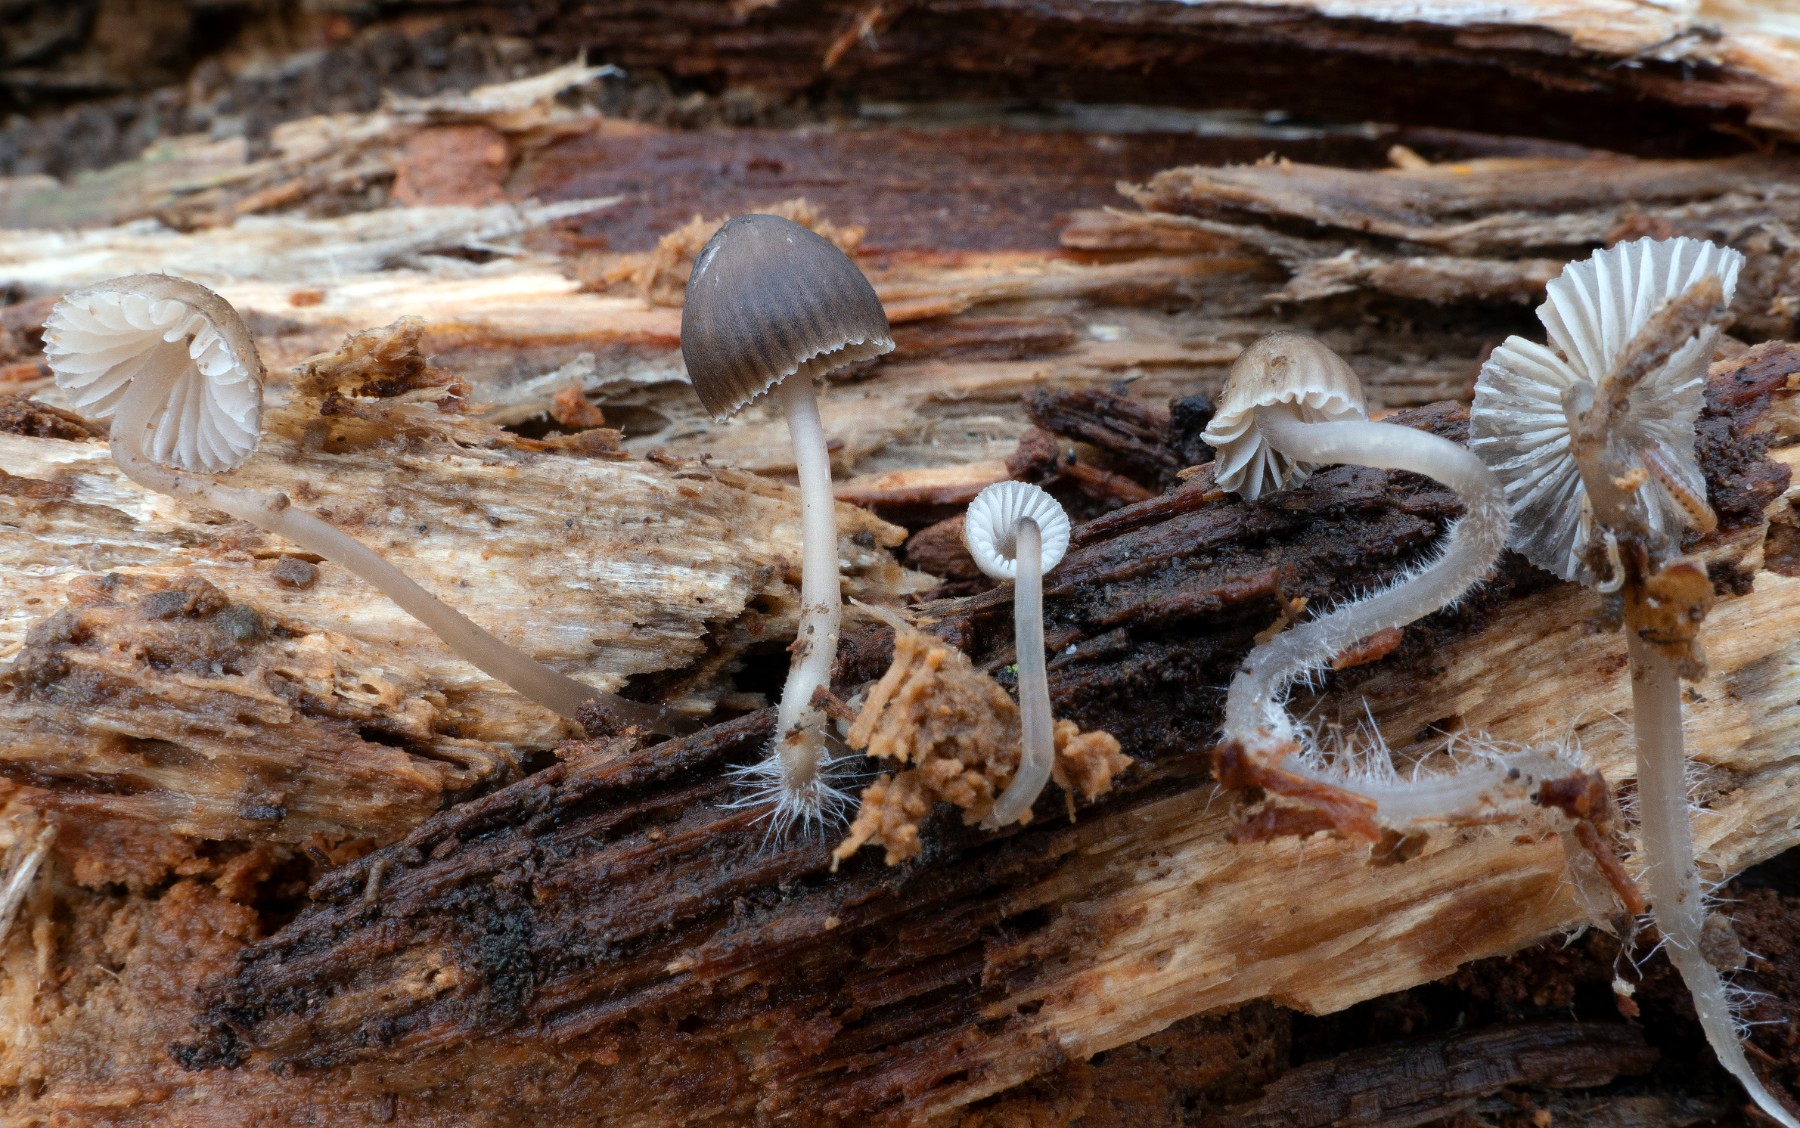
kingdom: Fungi
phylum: Basidiomycota
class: Agaricomycetes
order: Agaricales
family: Mycenaceae
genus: Mycena
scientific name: Mycena stipata
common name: stinkende huesvamp
